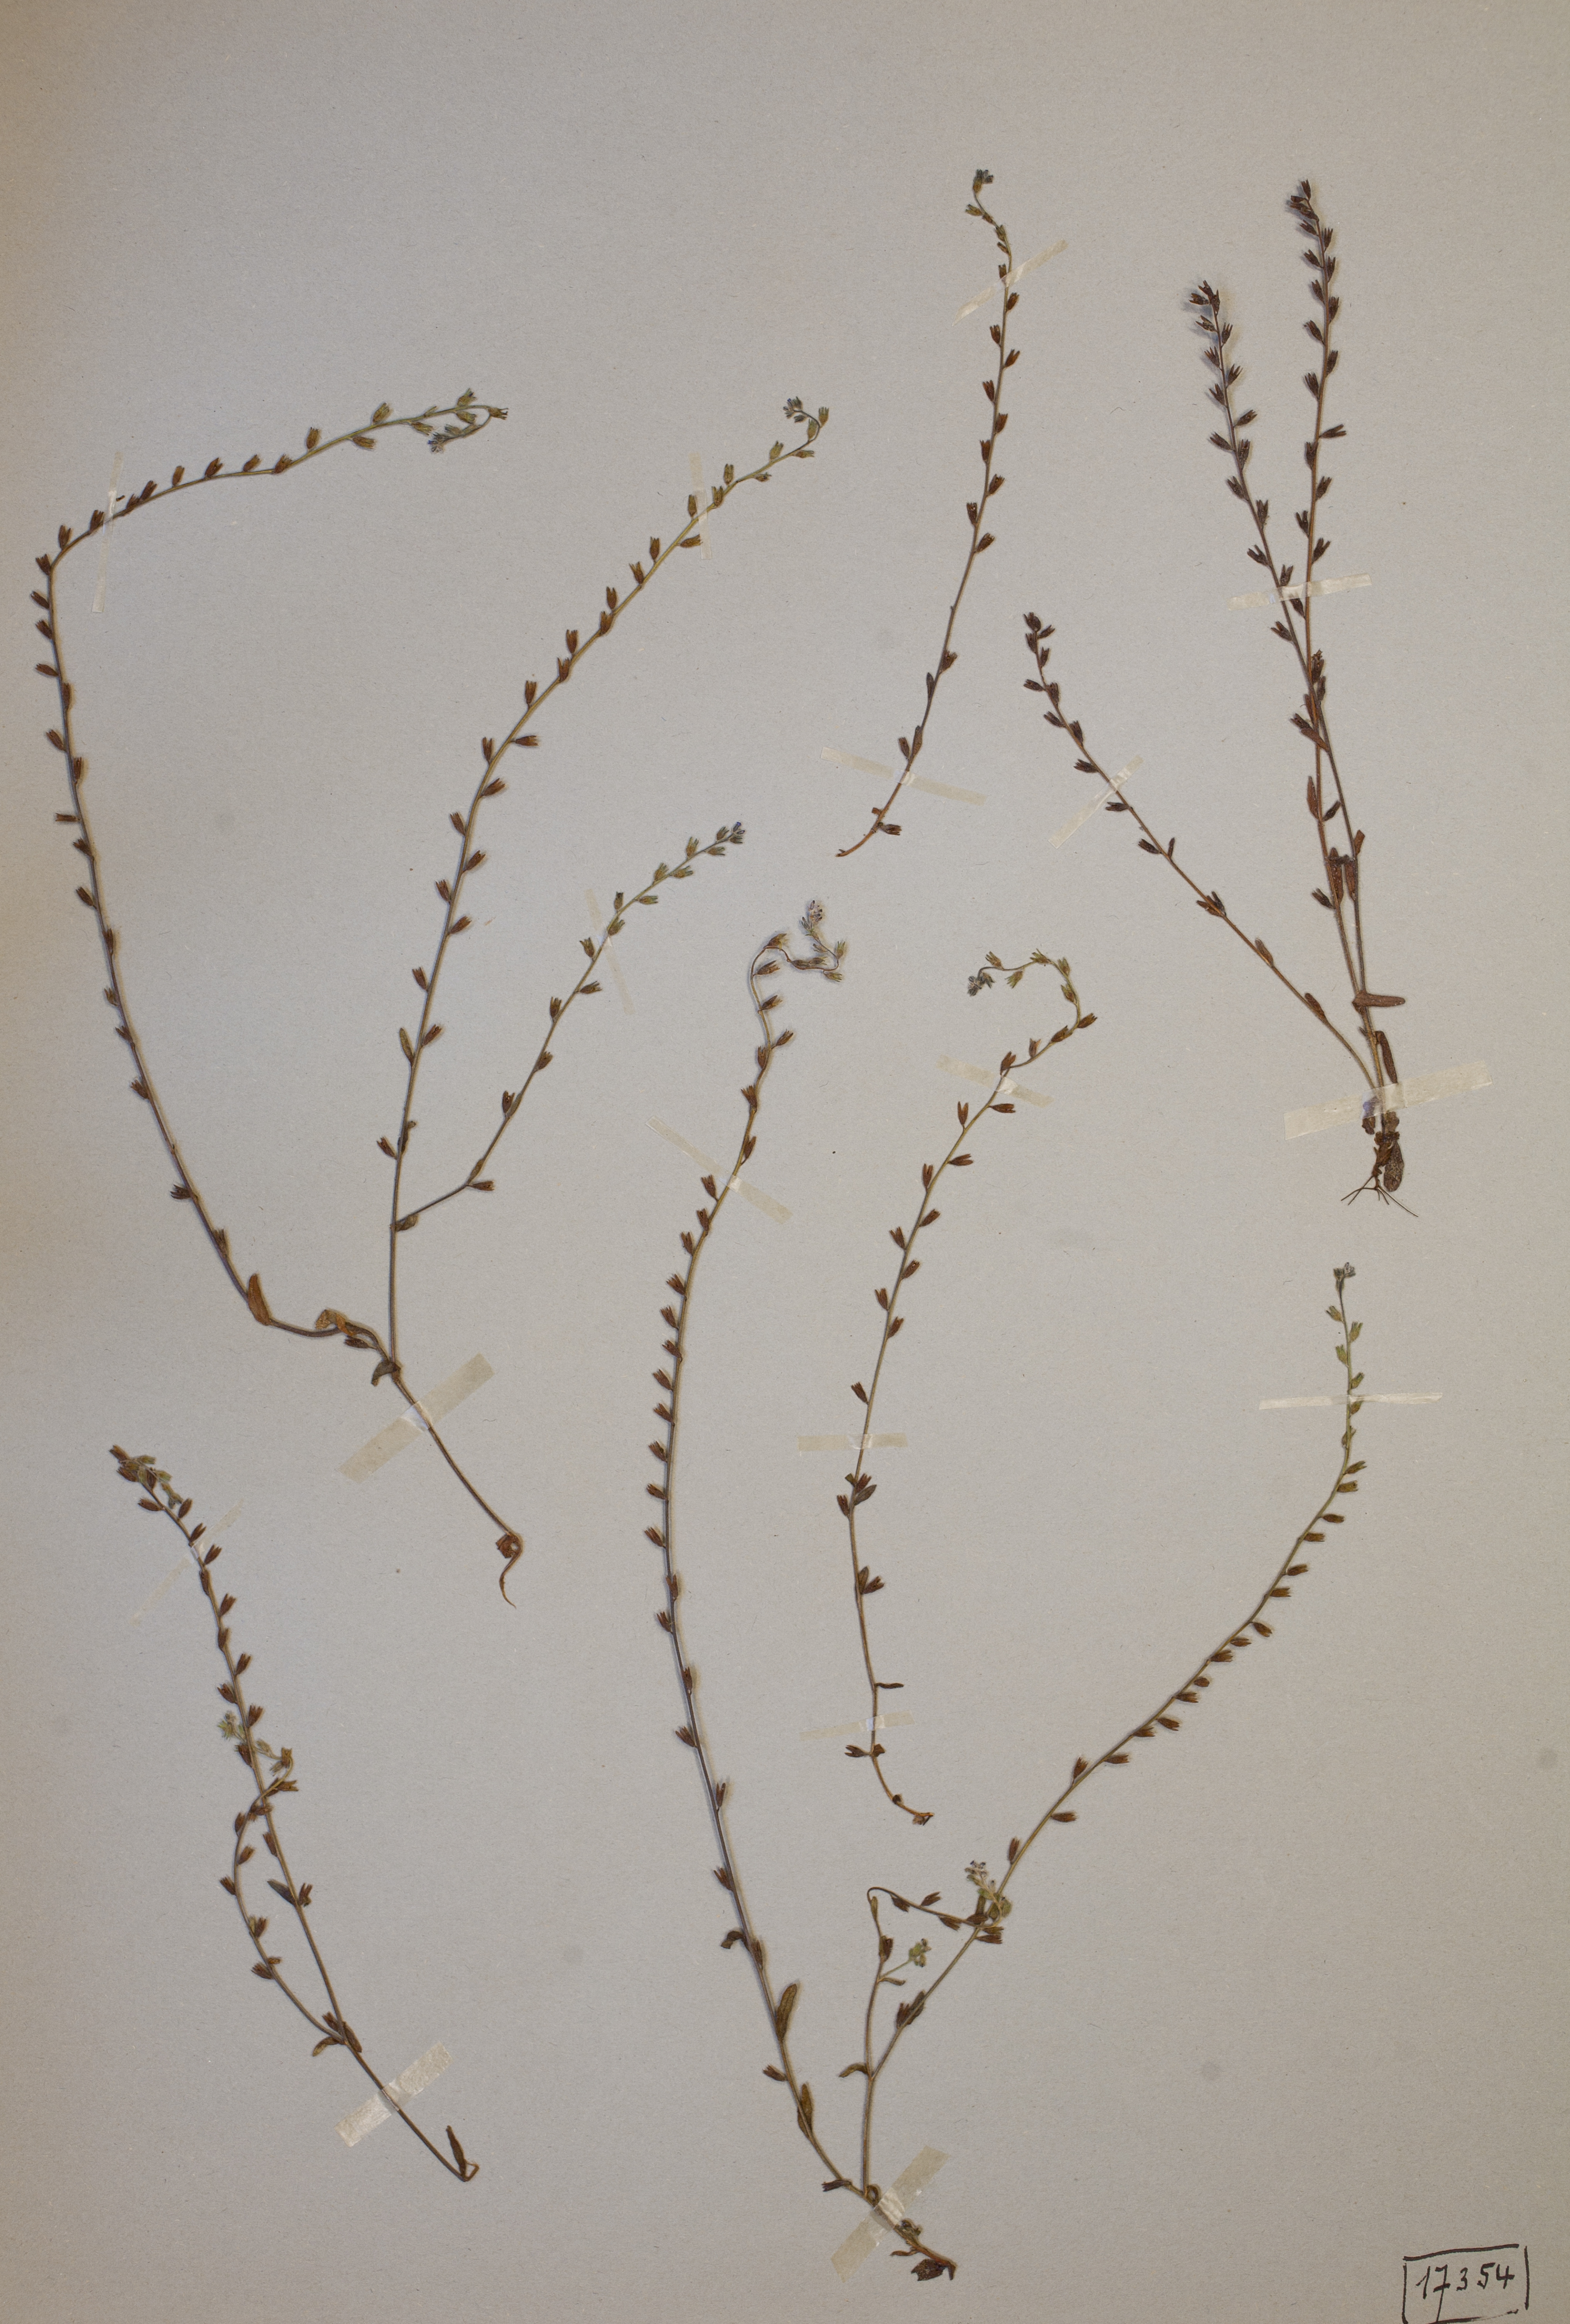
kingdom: Plantae
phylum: Tracheophyta
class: Magnoliopsida
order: Boraginales
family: Boraginaceae
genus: Myosotis
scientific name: Myosotis stricta
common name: Strict forget-me-not
